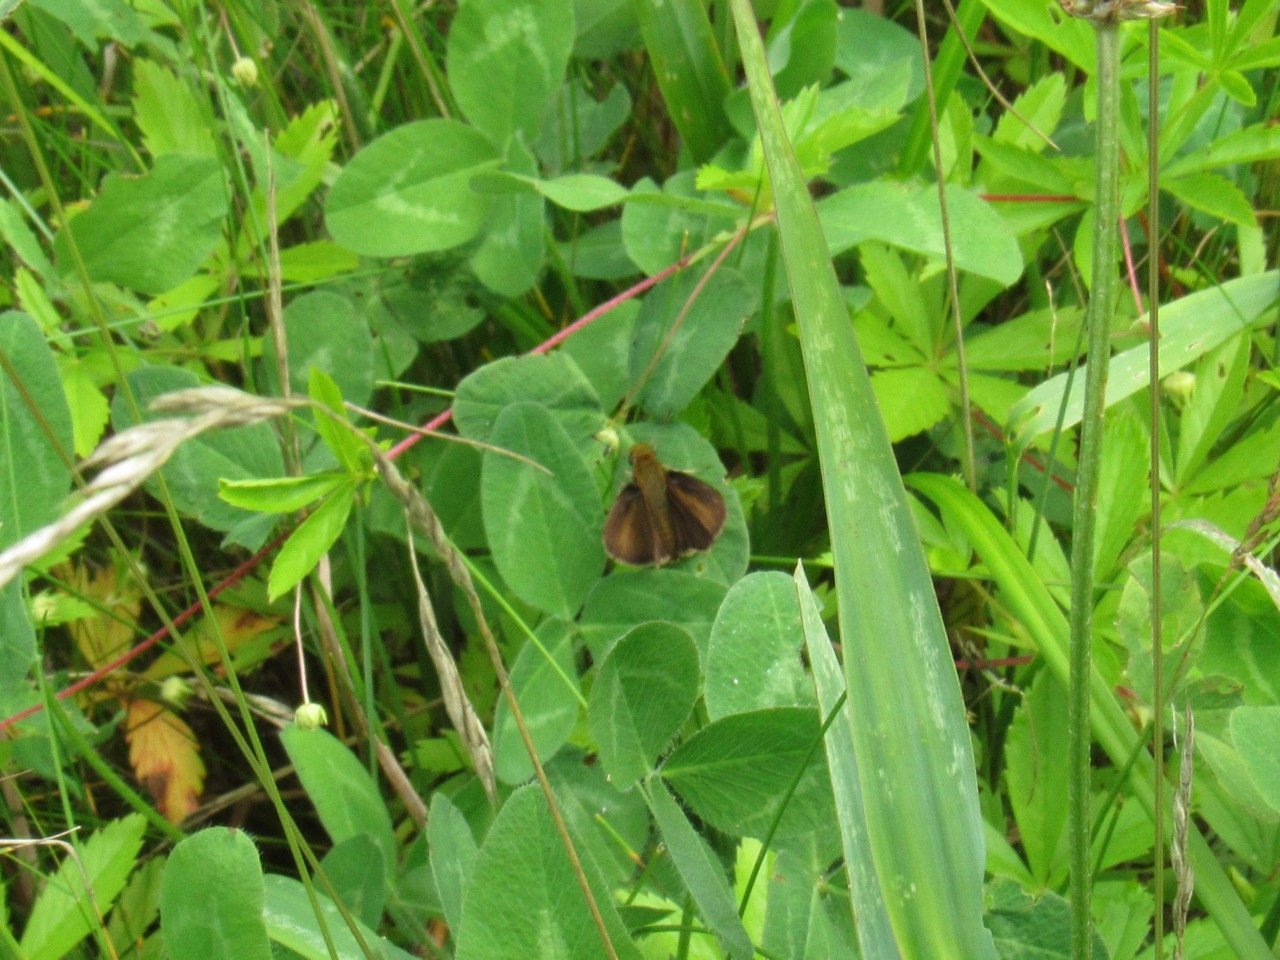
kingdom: Animalia
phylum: Arthropoda
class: Insecta
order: Lepidoptera
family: Hesperiidae
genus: Euphyes
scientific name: Euphyes vestris
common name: Dun Skipper
